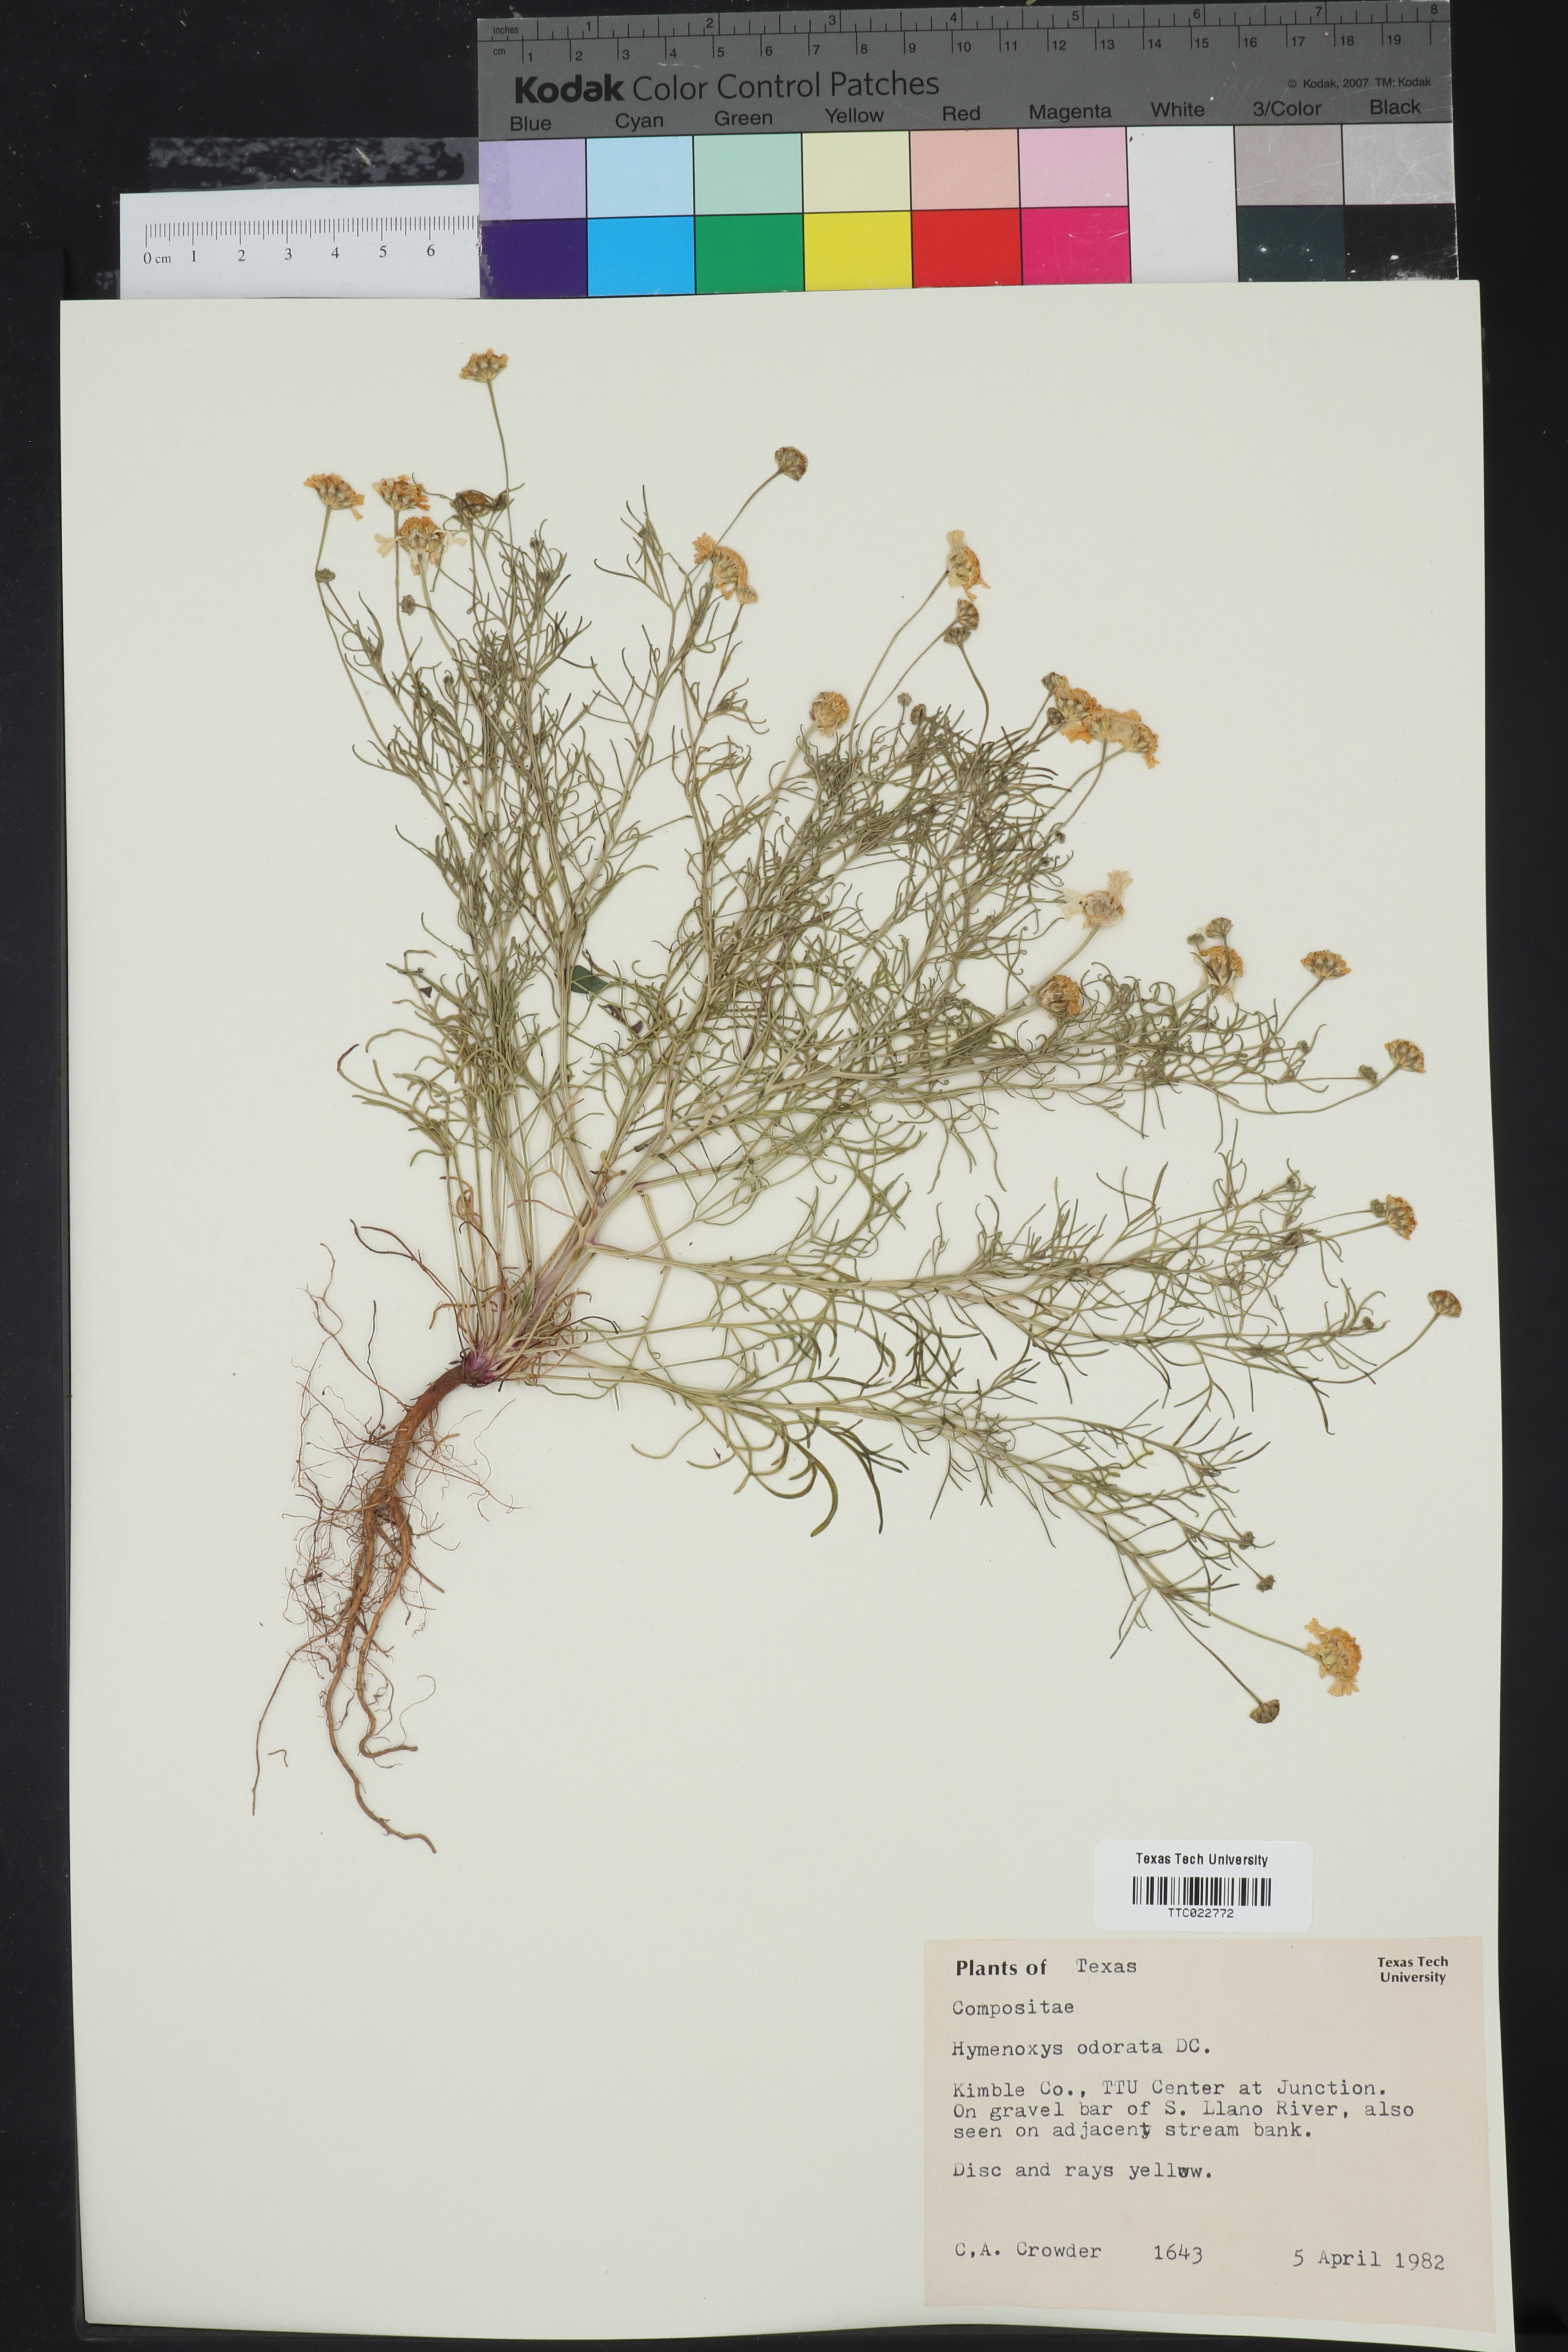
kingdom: Plantae
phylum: Tracheophyta
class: Magnoliopsida
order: Asterales
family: Asteraceae
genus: Hymenoxys
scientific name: Hymenoxys odorata
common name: Bitter rubberweed
